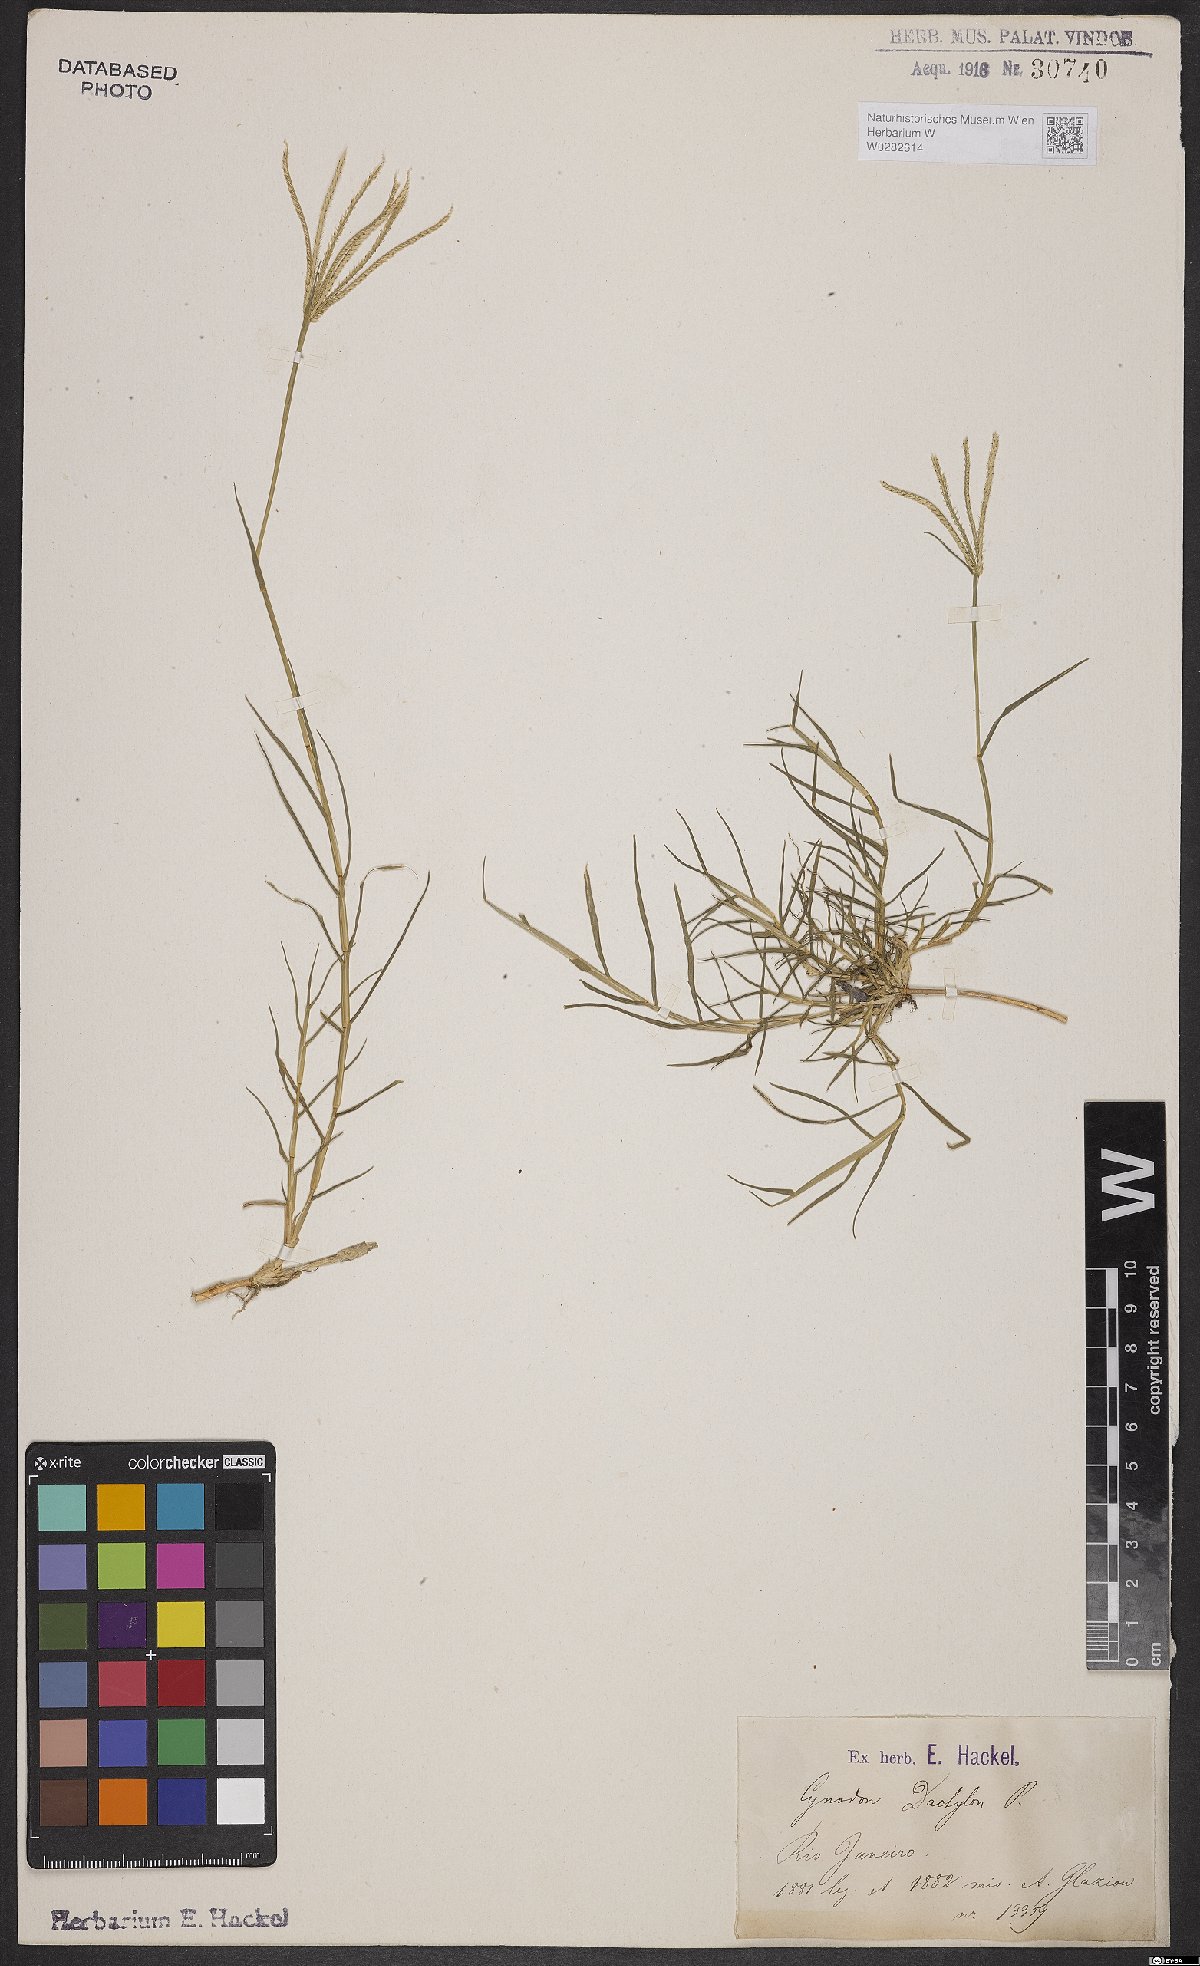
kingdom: Plantae
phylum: Tracheophyta
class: Liliopsida
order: Poales
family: Poaceae
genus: Cynodon
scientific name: Cynodon dactylon
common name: Bermuda grass
